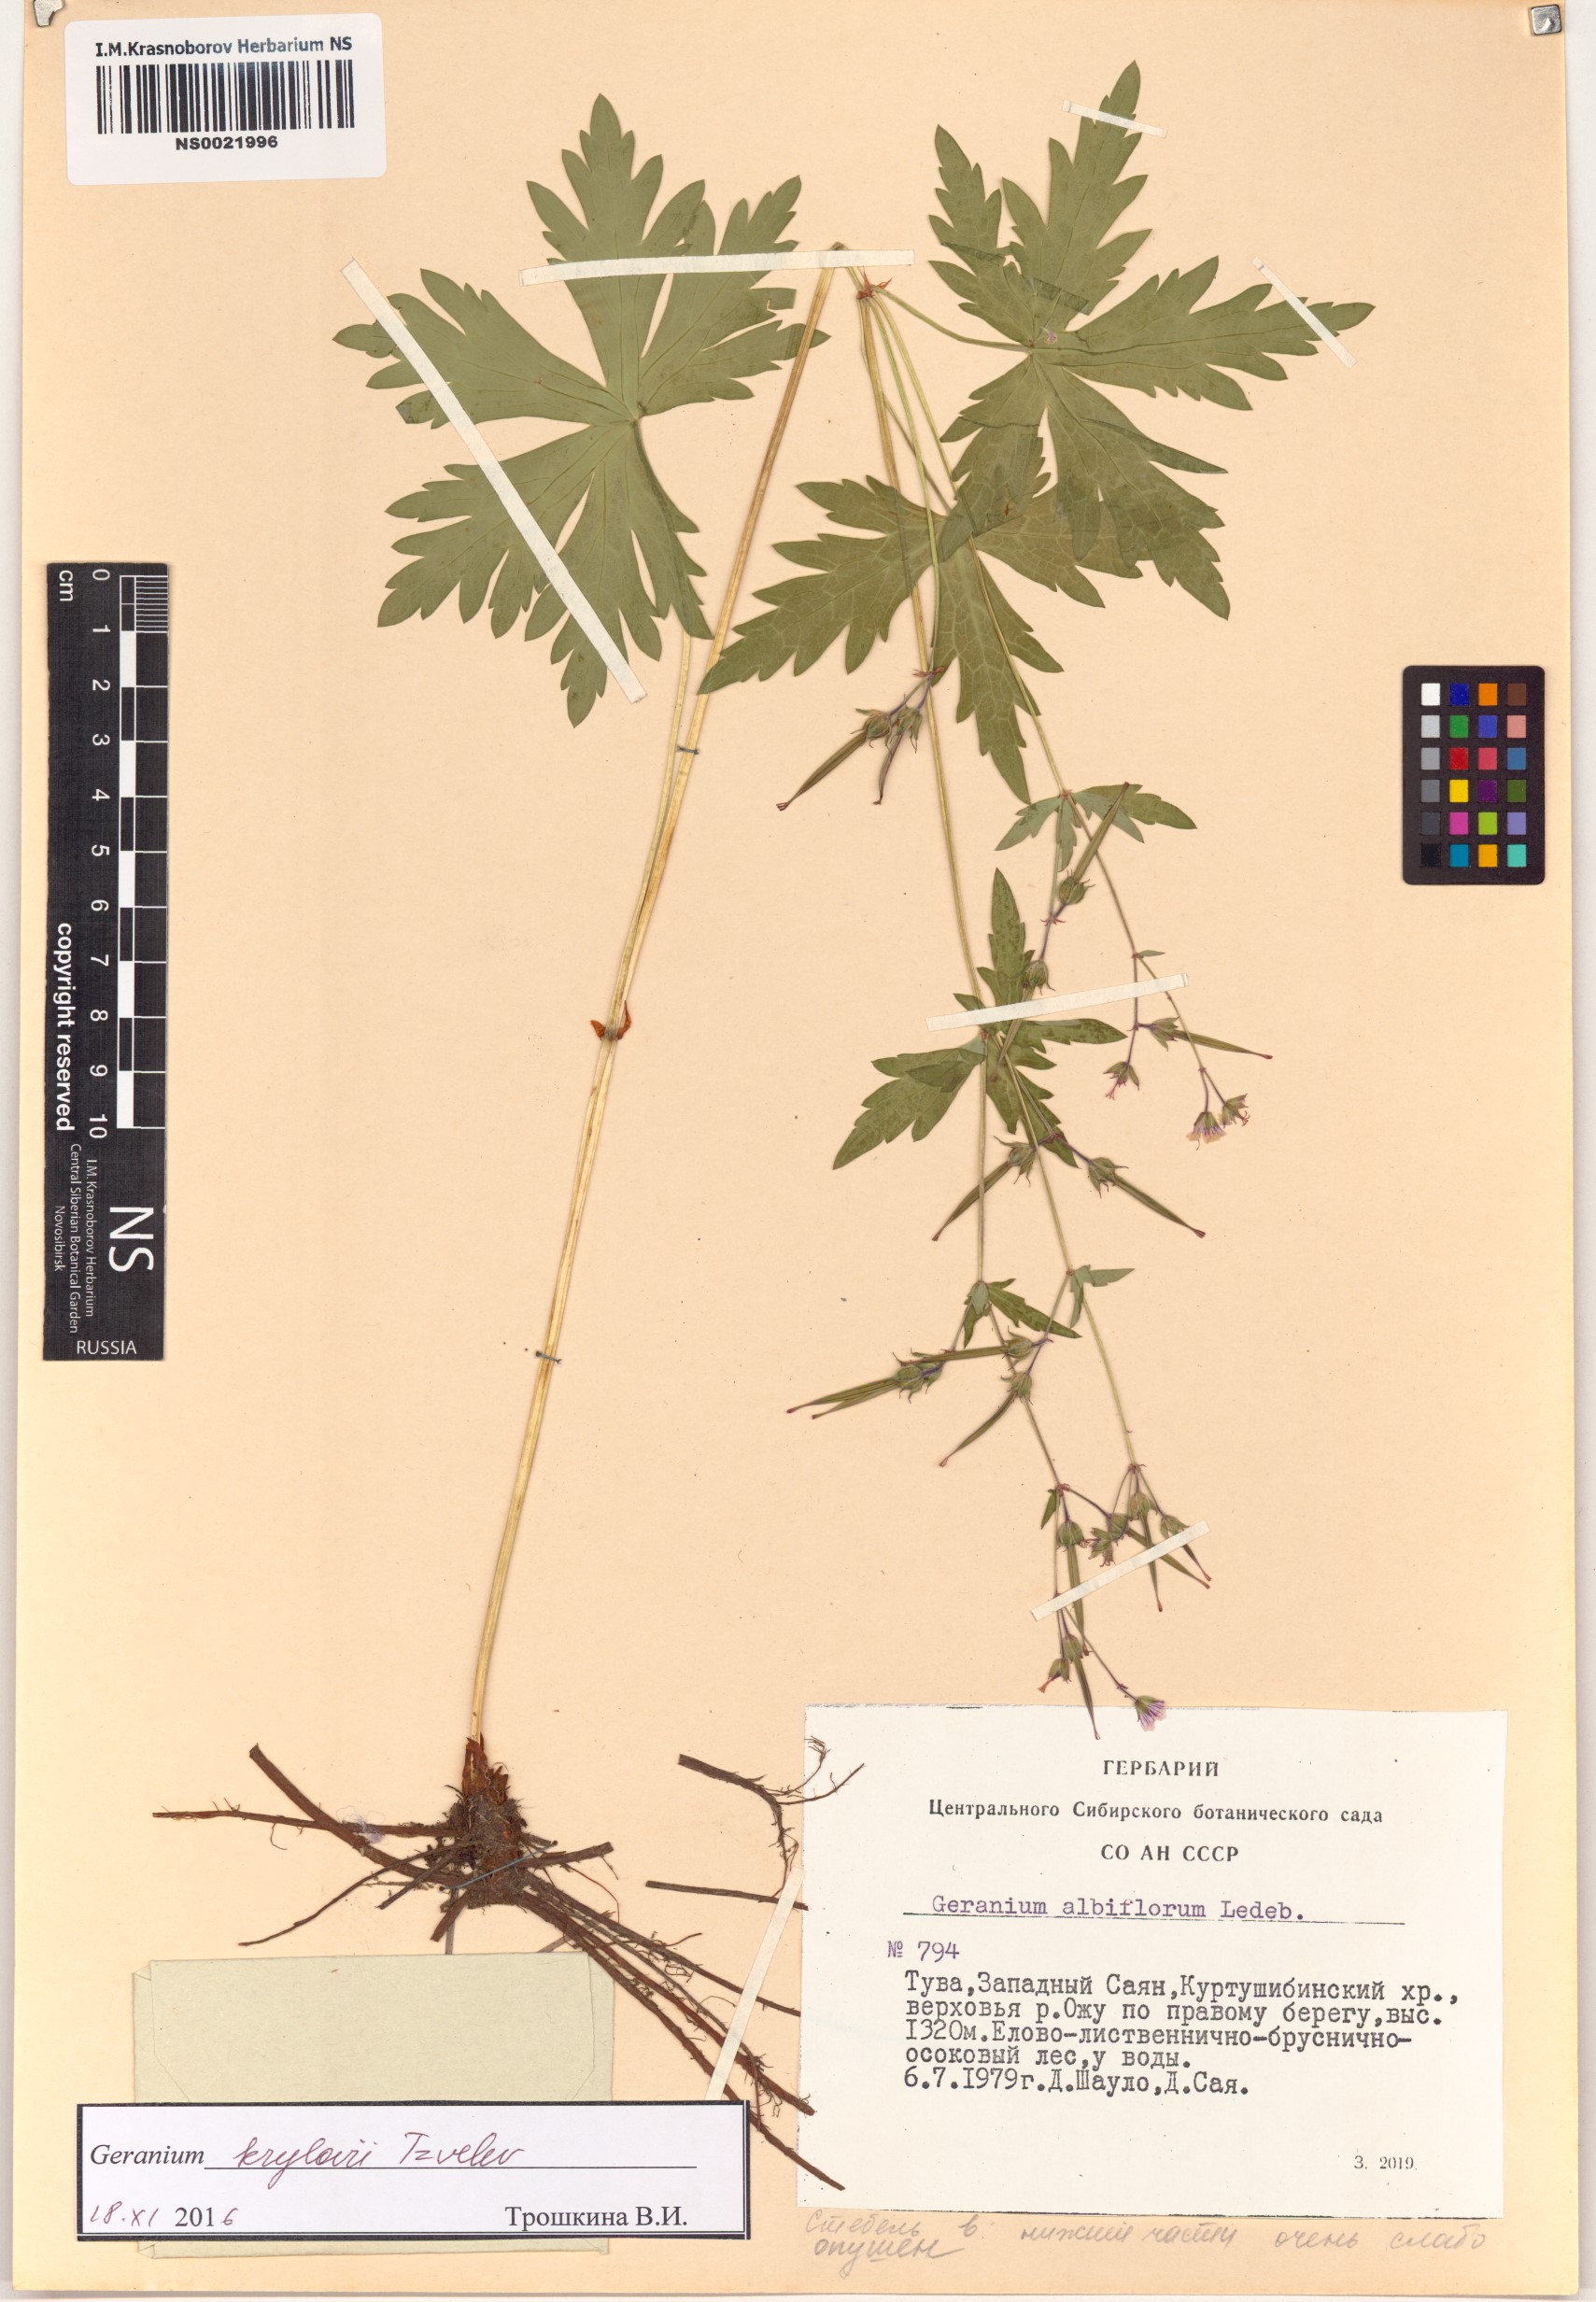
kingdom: Plantae
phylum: Tracheophyta
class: Magnoliopsida
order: Geraniales
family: Geraniaceae
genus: Geranium
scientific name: Geranium sylvaticum
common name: Wood crane's-bill
